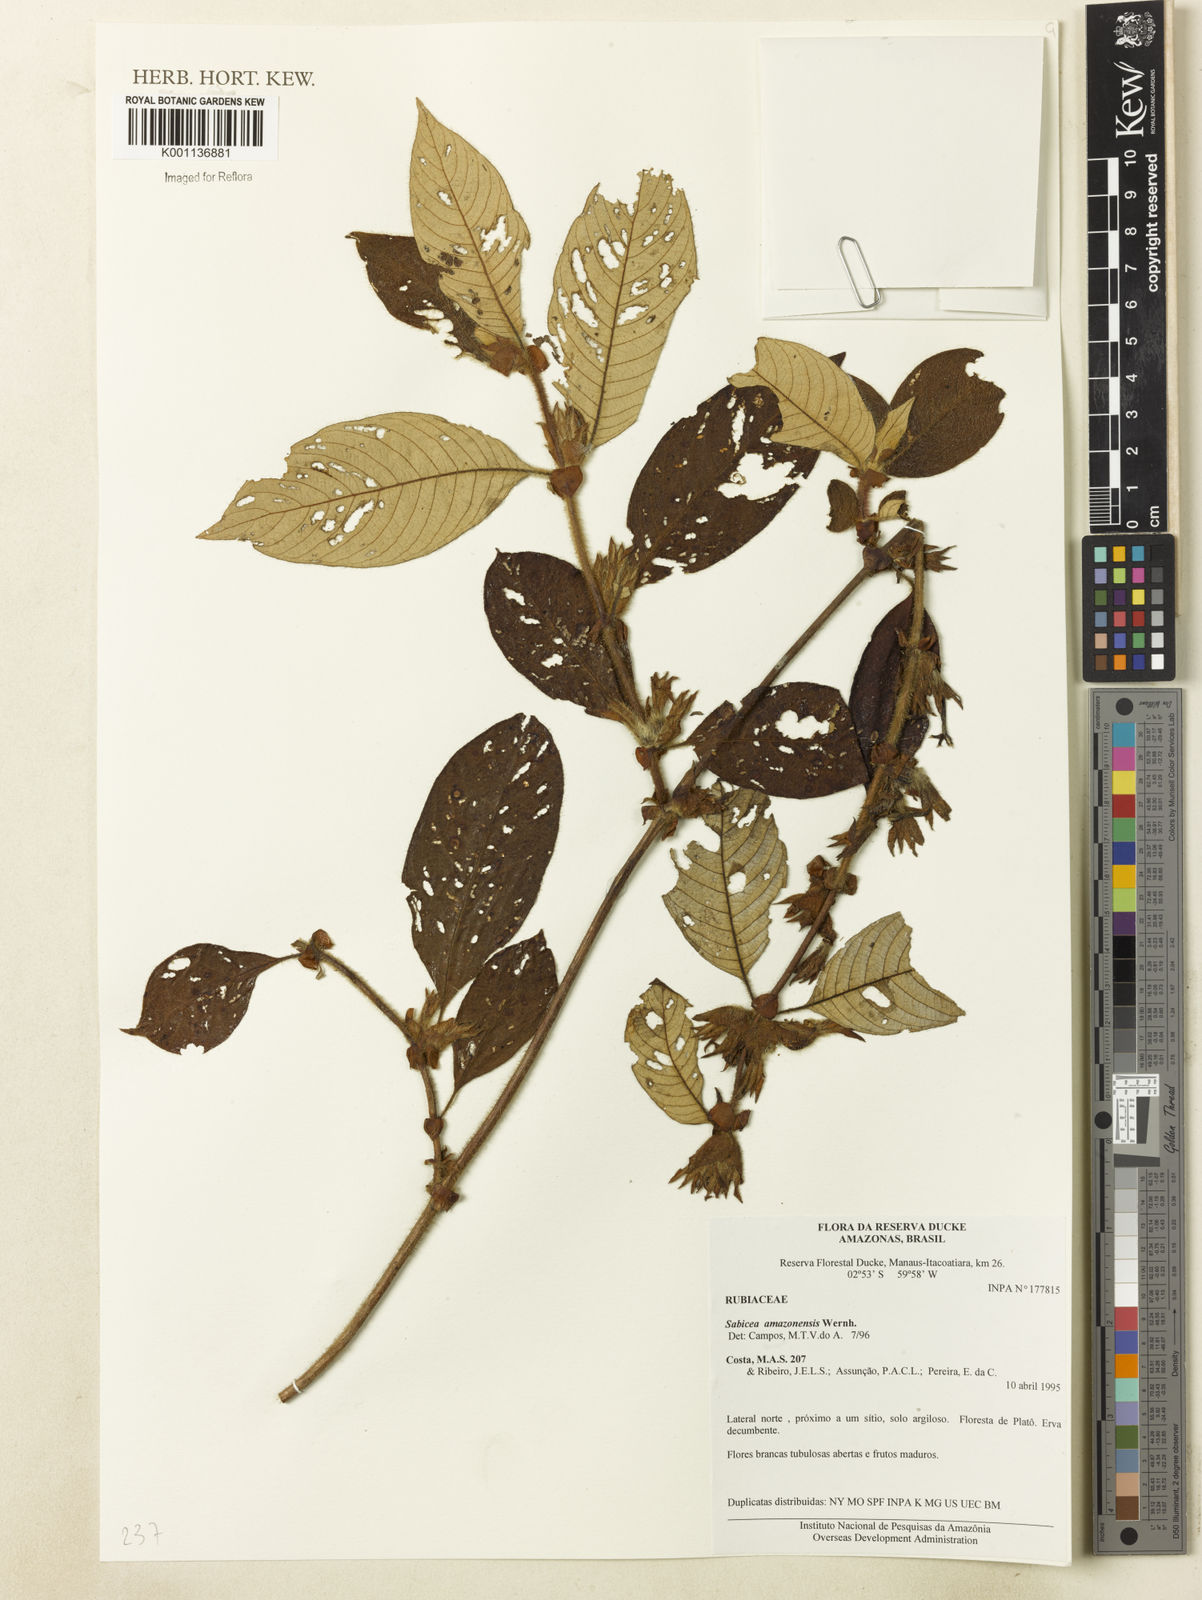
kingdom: Plantae
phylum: Tracheophyta
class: Magnoliopsida
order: Gentianales
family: Rubiaceae
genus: Sabicea
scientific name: Sabicea amazonensis
